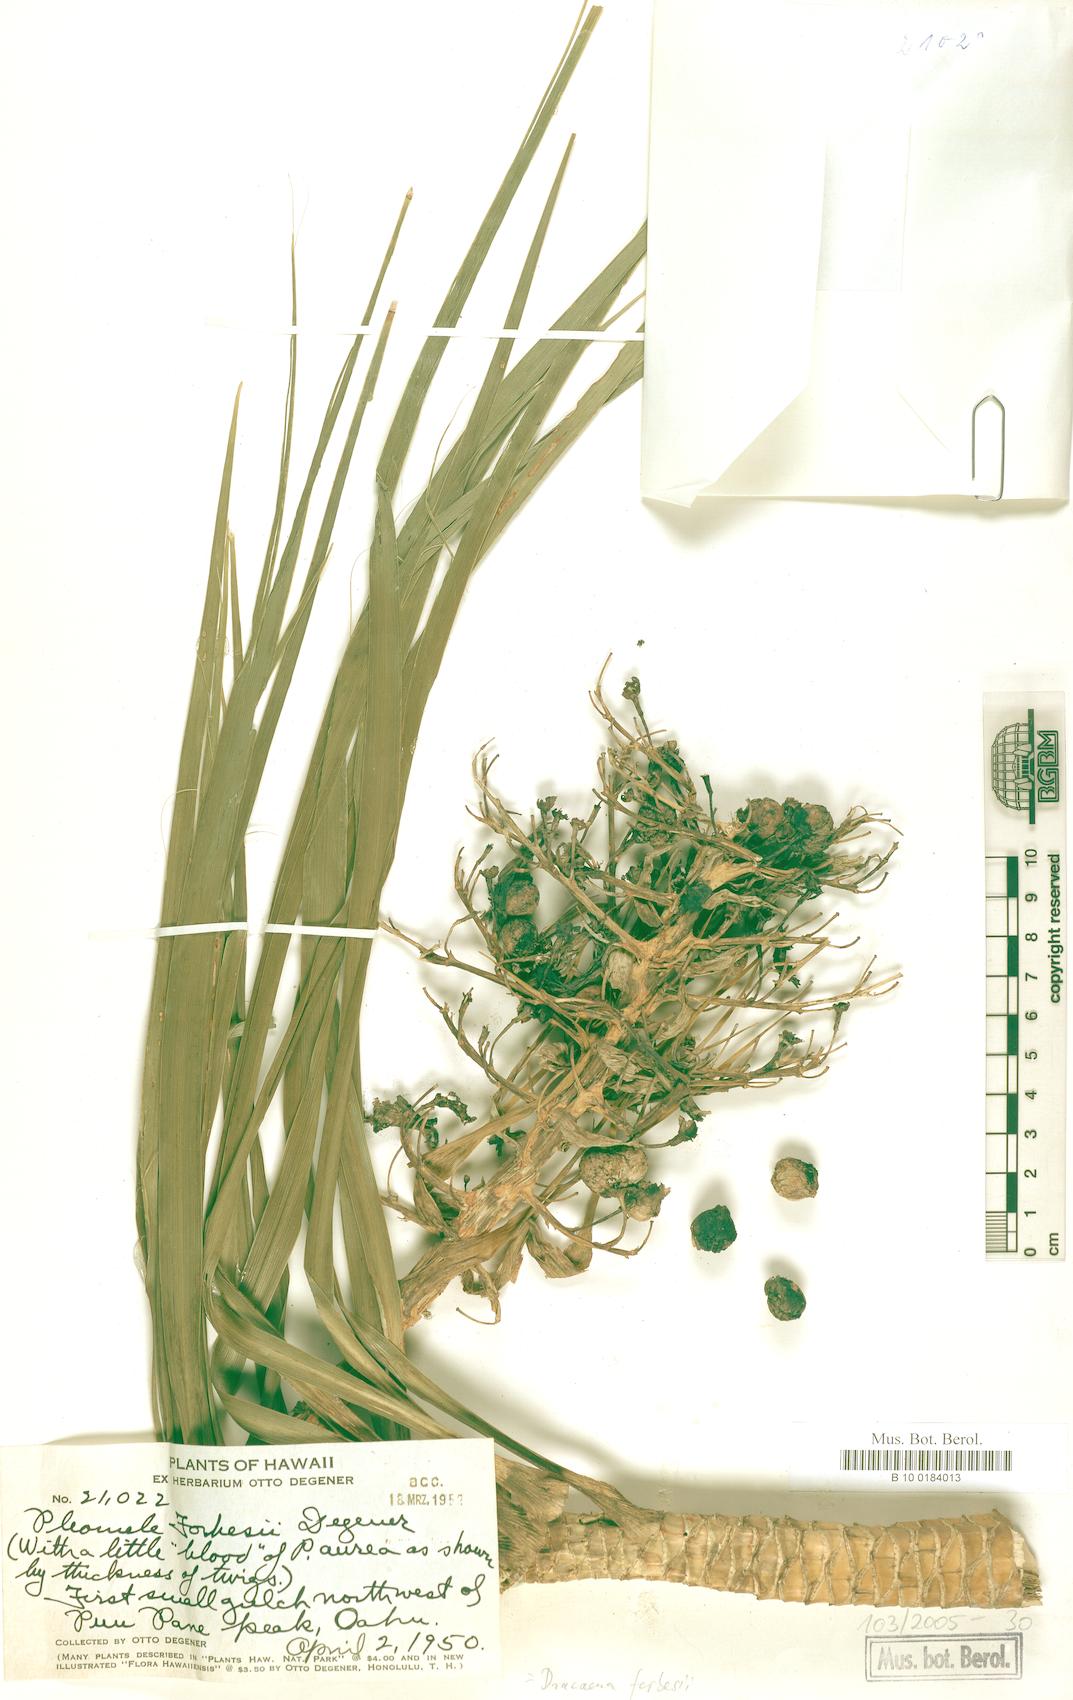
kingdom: Plantae
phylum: Tracheophyta
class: Liliopsida
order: Asparagales
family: Asparagaceae
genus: Dracaena
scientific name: Dracaena forbesii
